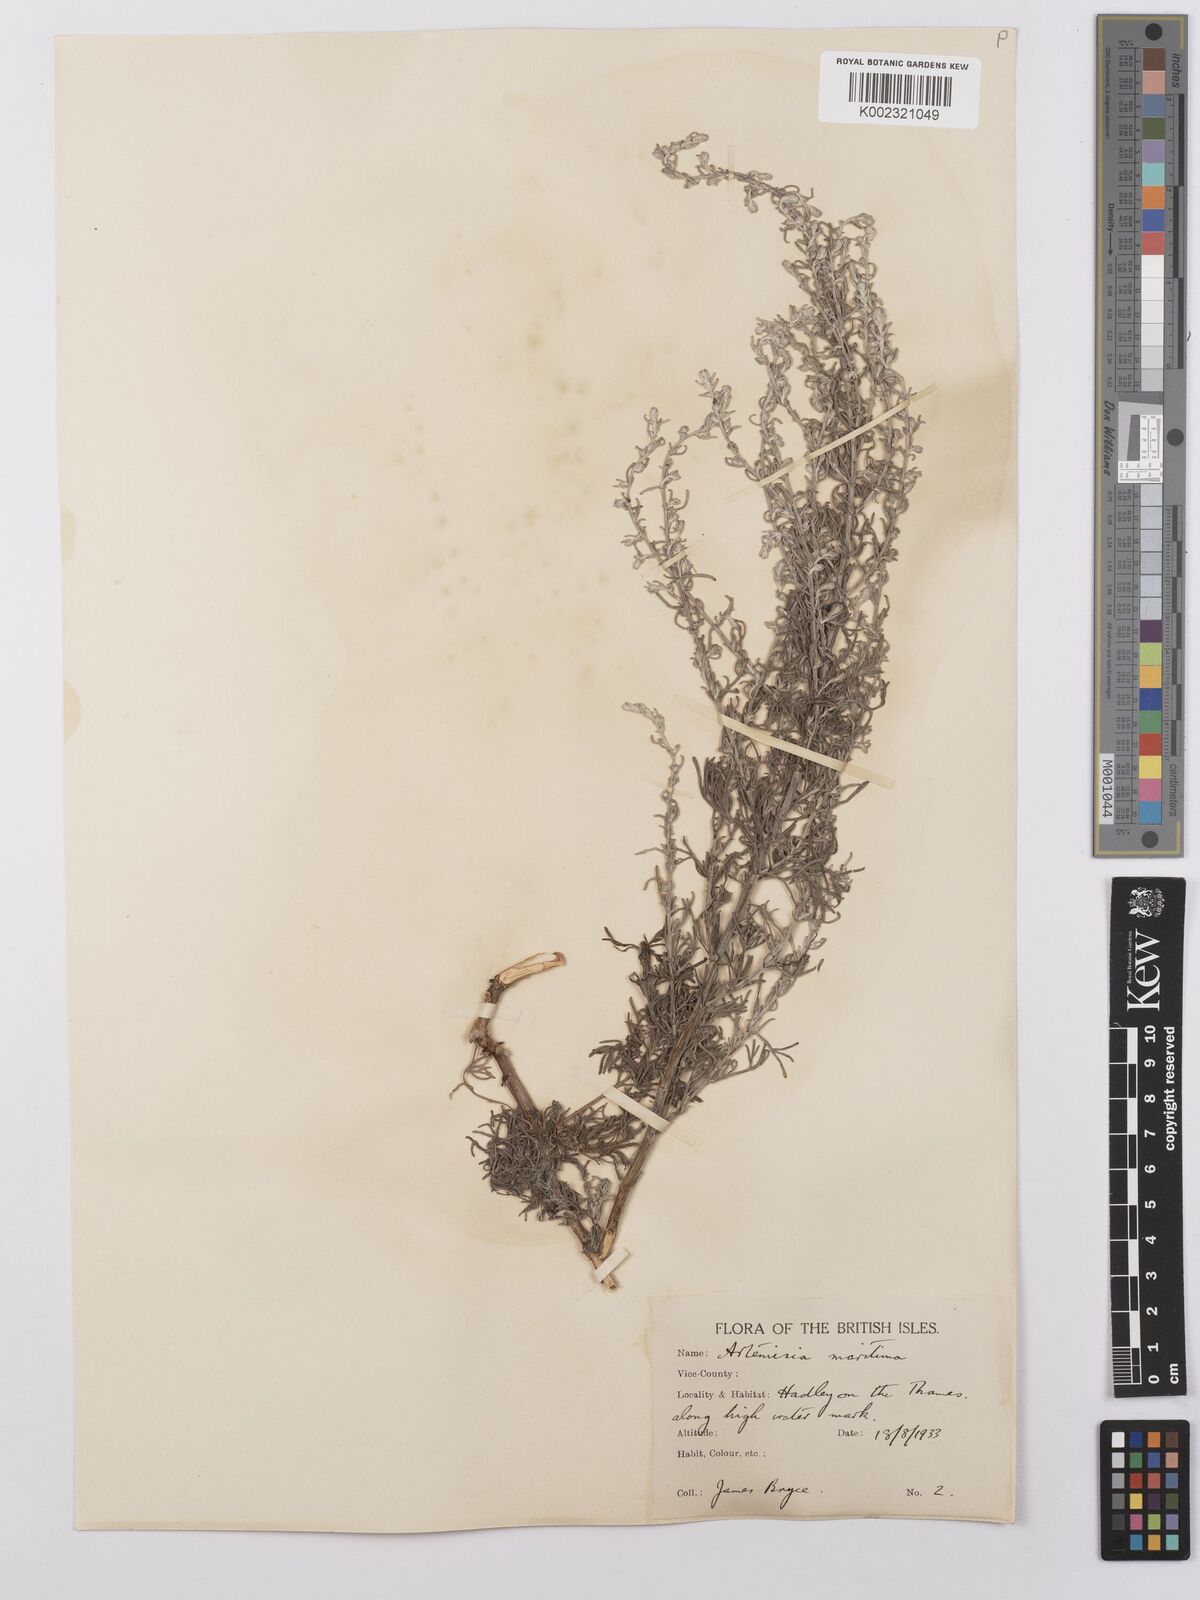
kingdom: Plantae
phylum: Tracheophyta
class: Magnoliopsida
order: Asterales
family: Asteraceae
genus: Artemisia
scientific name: Artemisia maritima
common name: Wormseed
